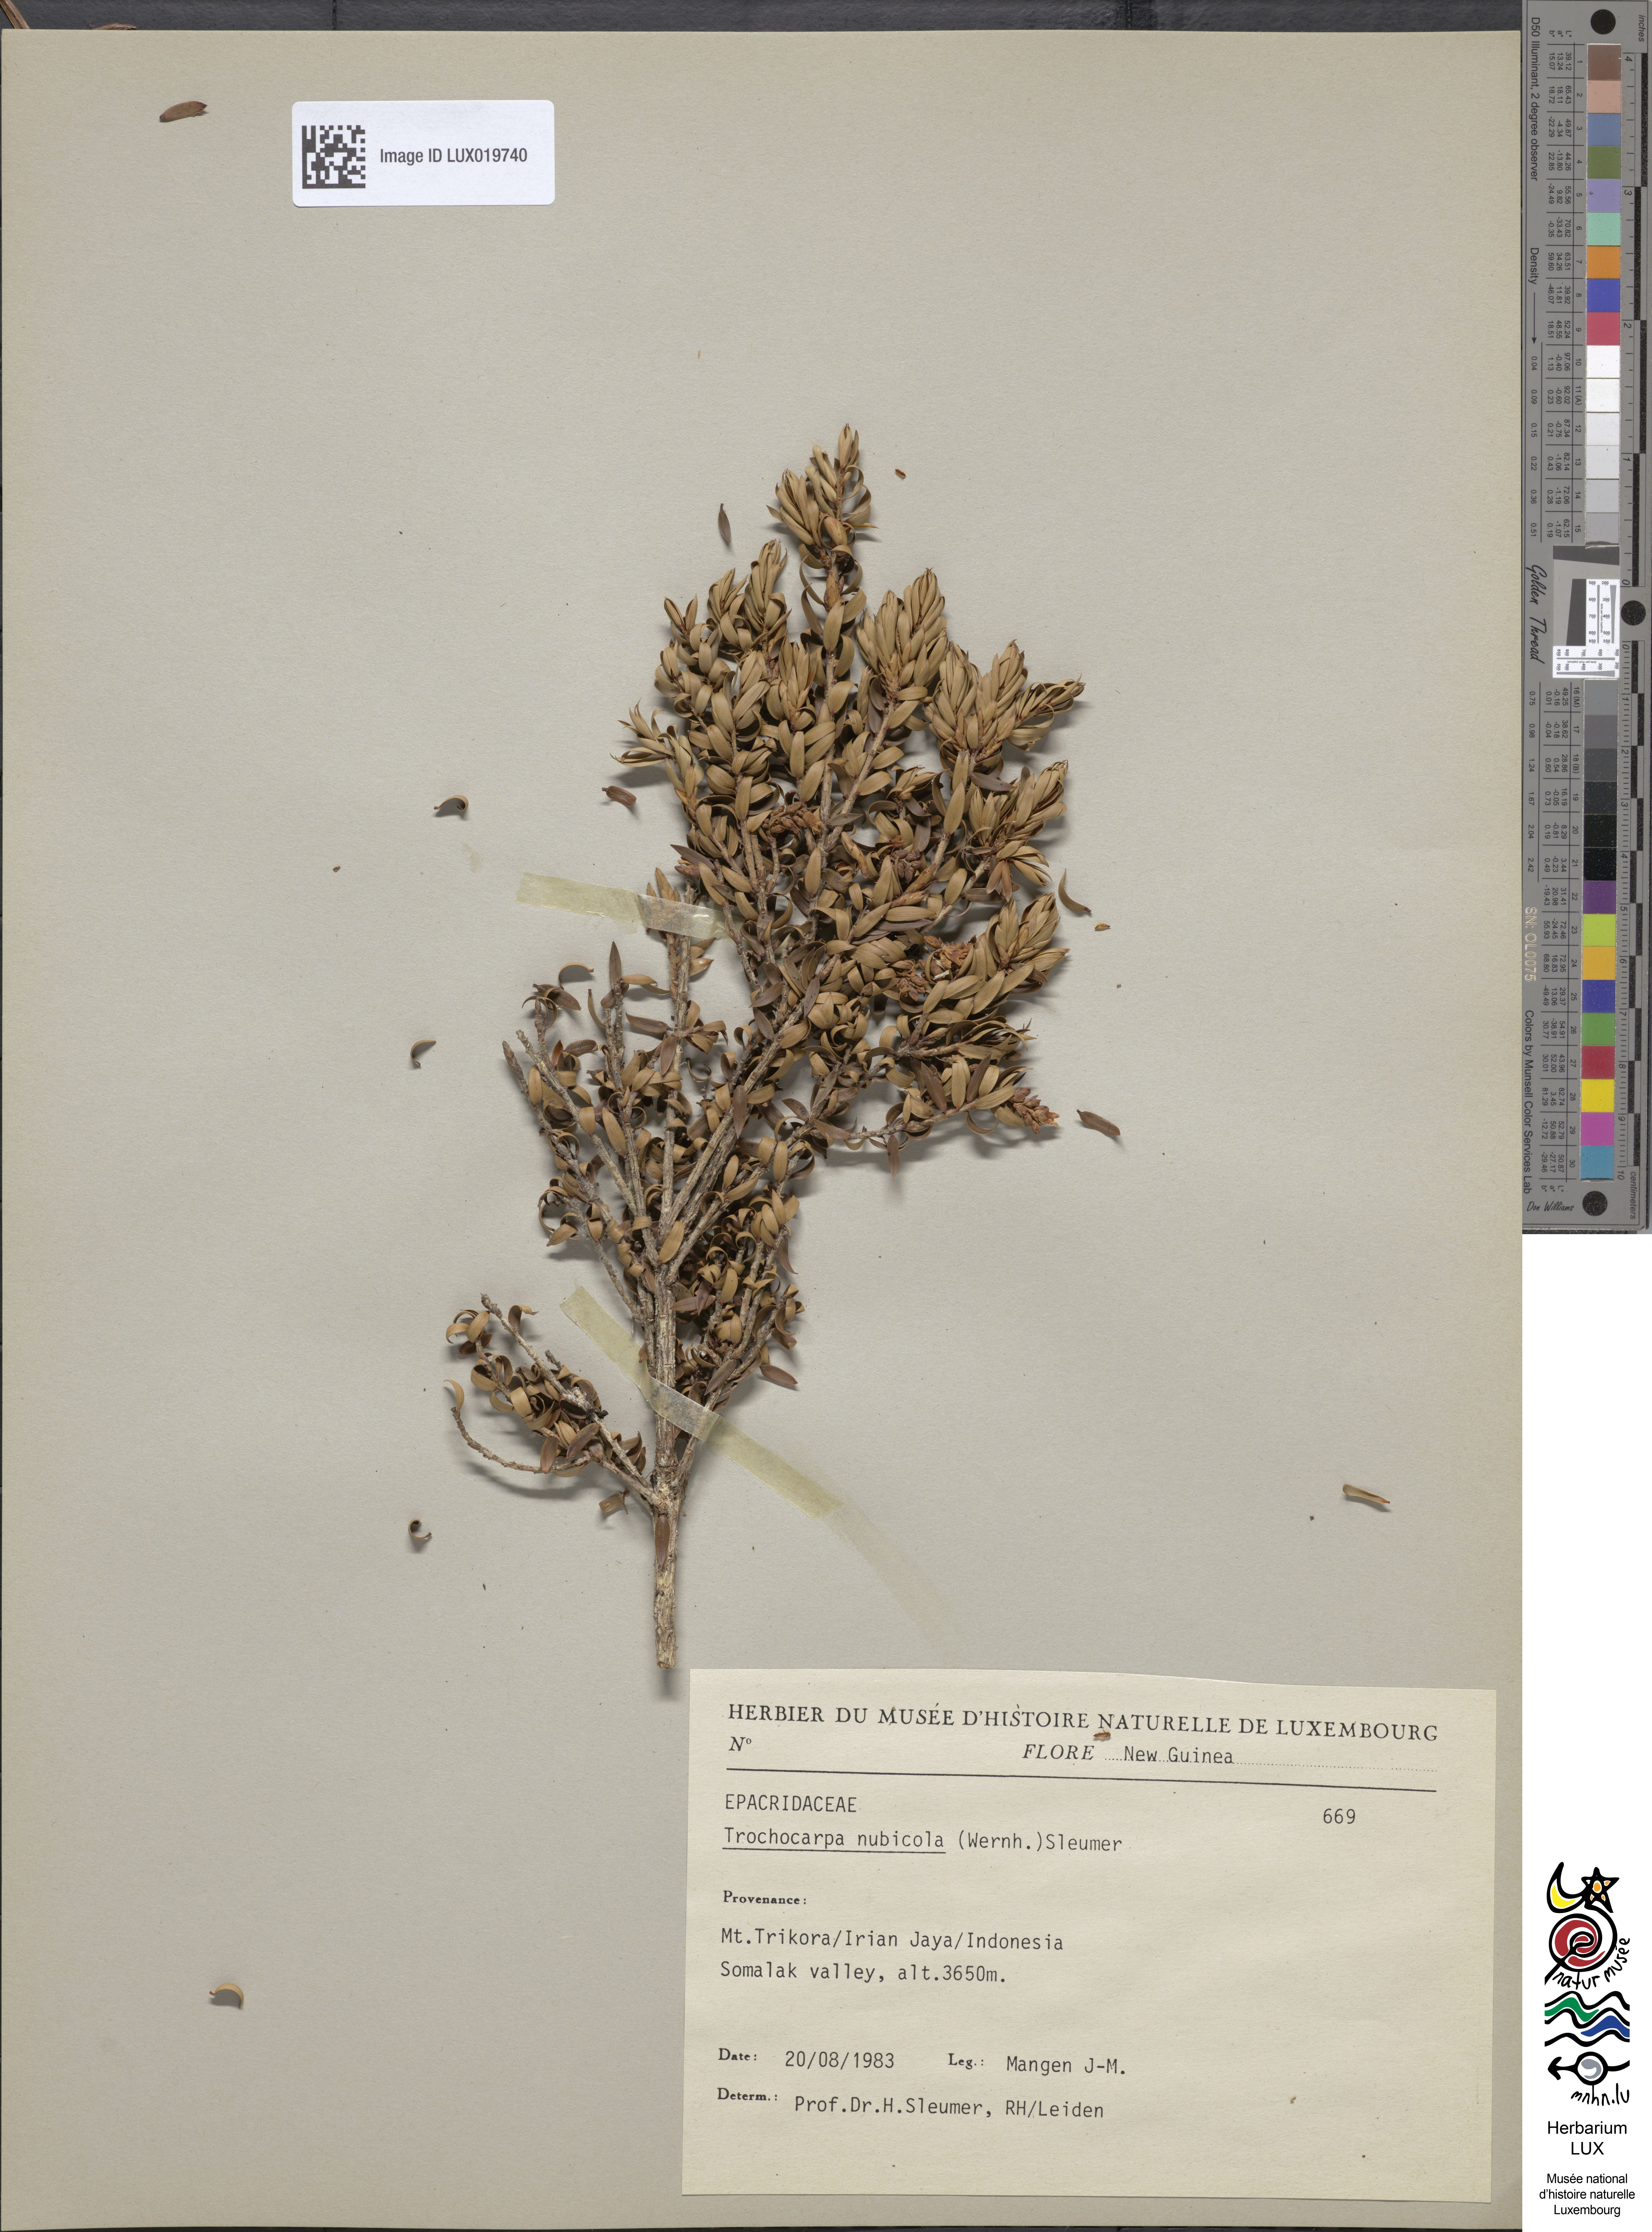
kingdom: Plantae
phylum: Tracheophyta
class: Magnoliopsida
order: Ericales
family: Ericaceae
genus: Trochocarpa
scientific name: Trochocarpa nubicola
